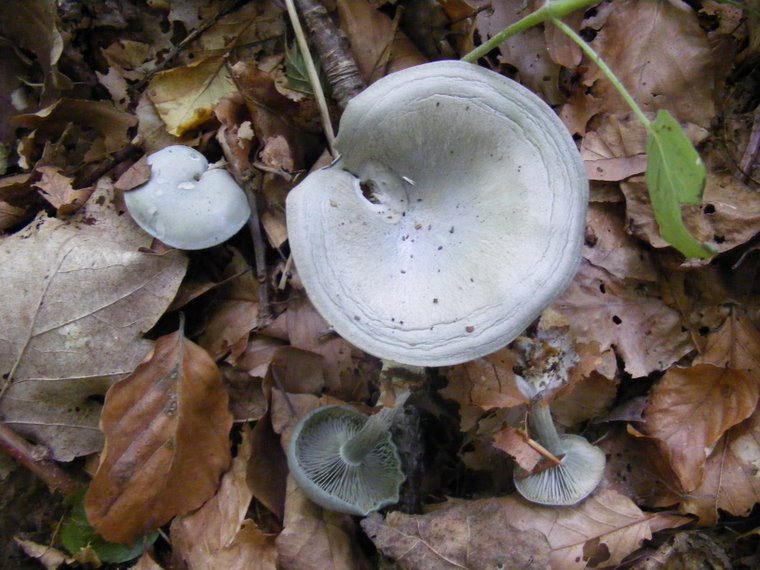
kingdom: Fungi
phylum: Basidiomycota
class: Agaricomycetes
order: Agaricales
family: Tricholomataceae
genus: Clitocybe
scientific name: Clitocybe odora
